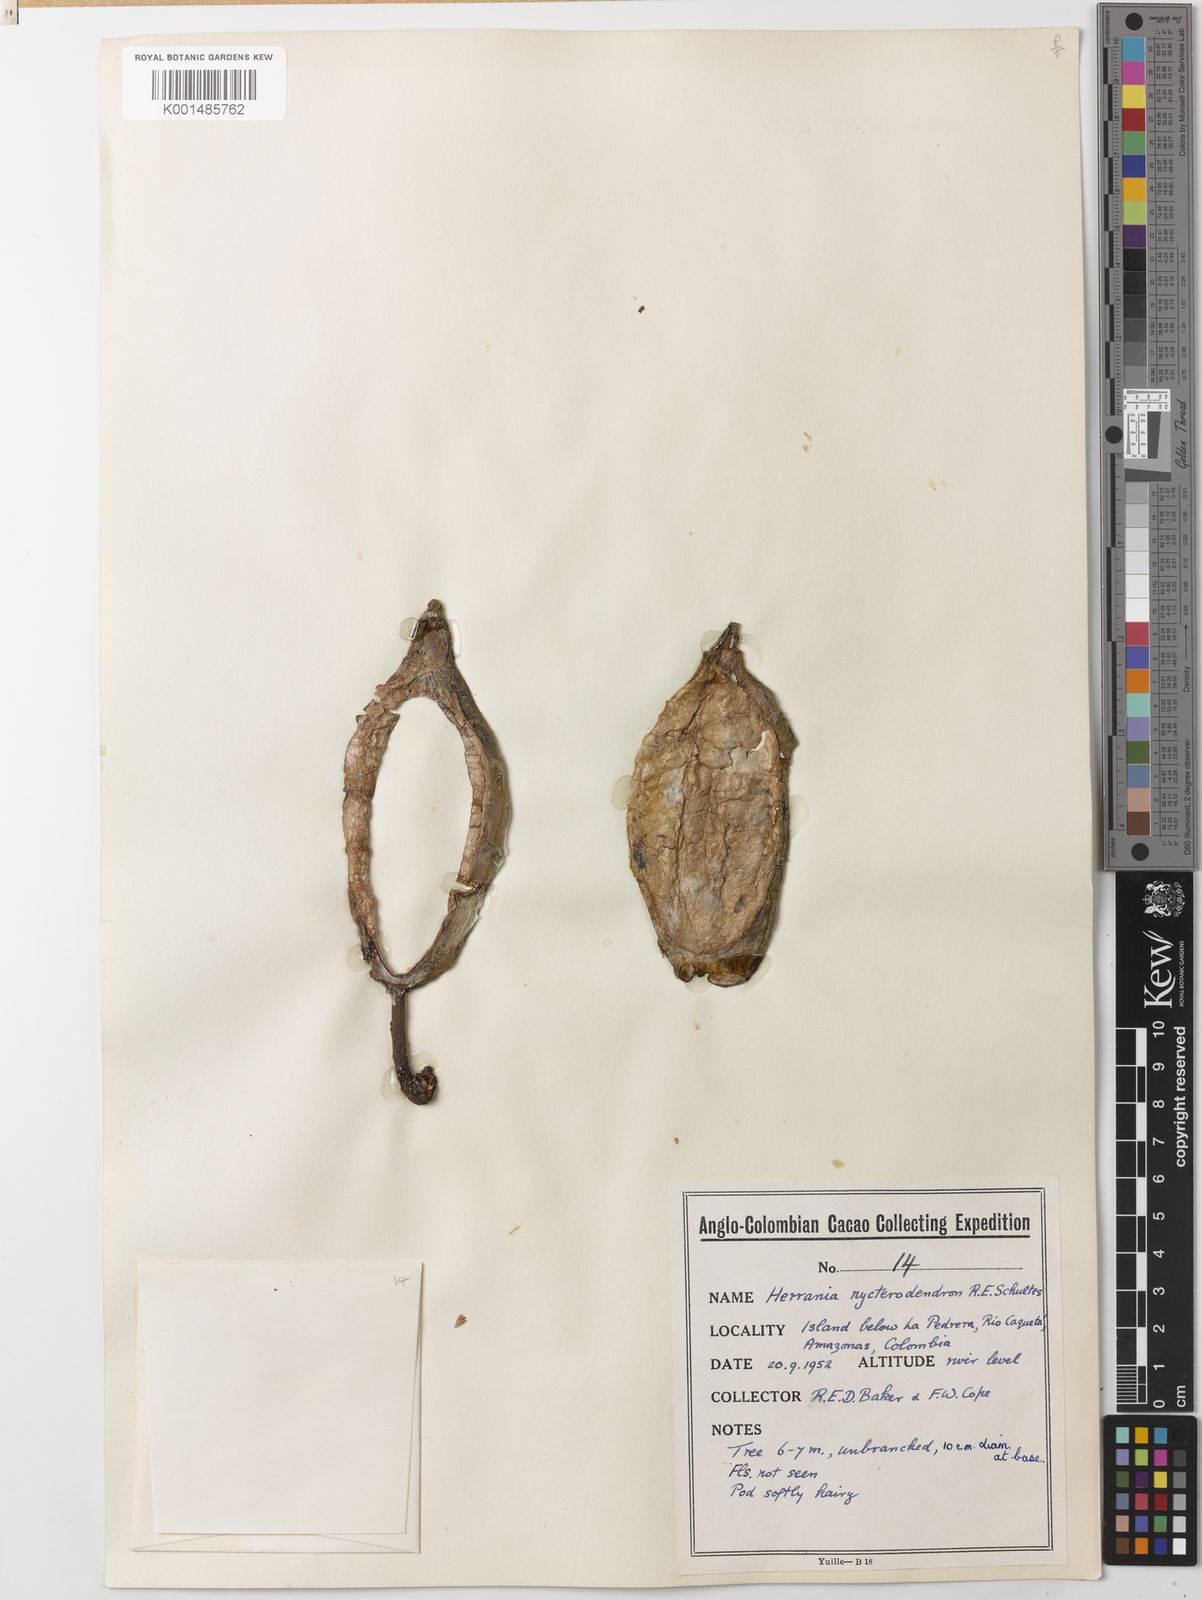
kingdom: Plantae
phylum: Tracheophyta
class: Magnoliopsida
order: Malvales
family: Malvaceae
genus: Herrania
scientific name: Herrania nycterodendron
